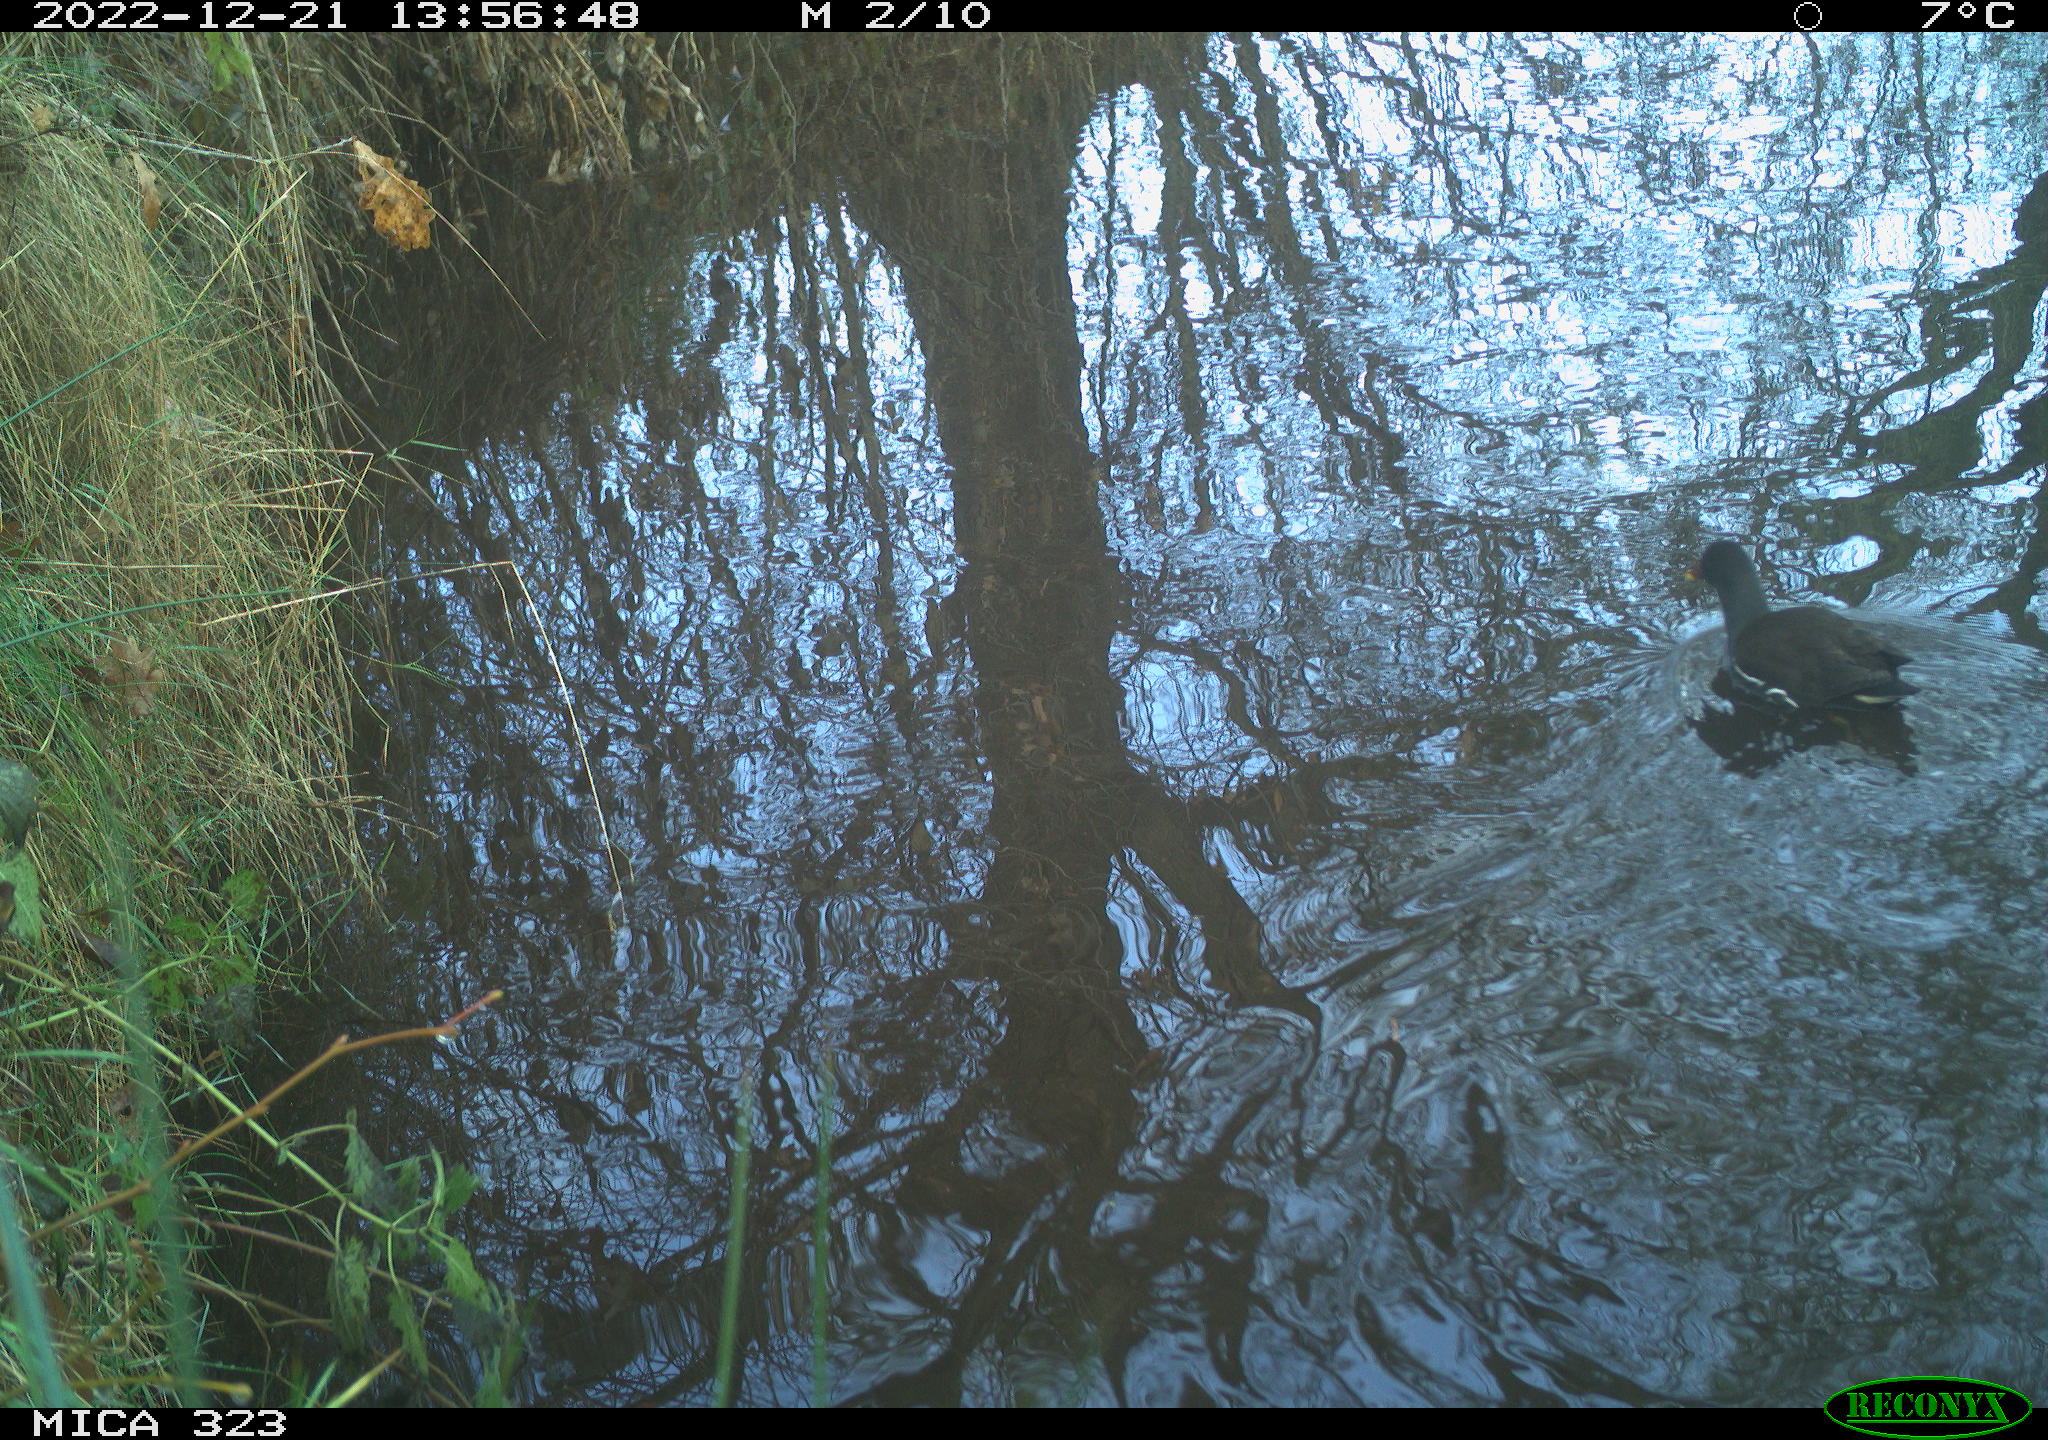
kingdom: Animalia
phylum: Chordata
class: Aves
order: Gruiformes
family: Rallidae
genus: Gallinula
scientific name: Gallinula chloropus
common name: Common moorhen
